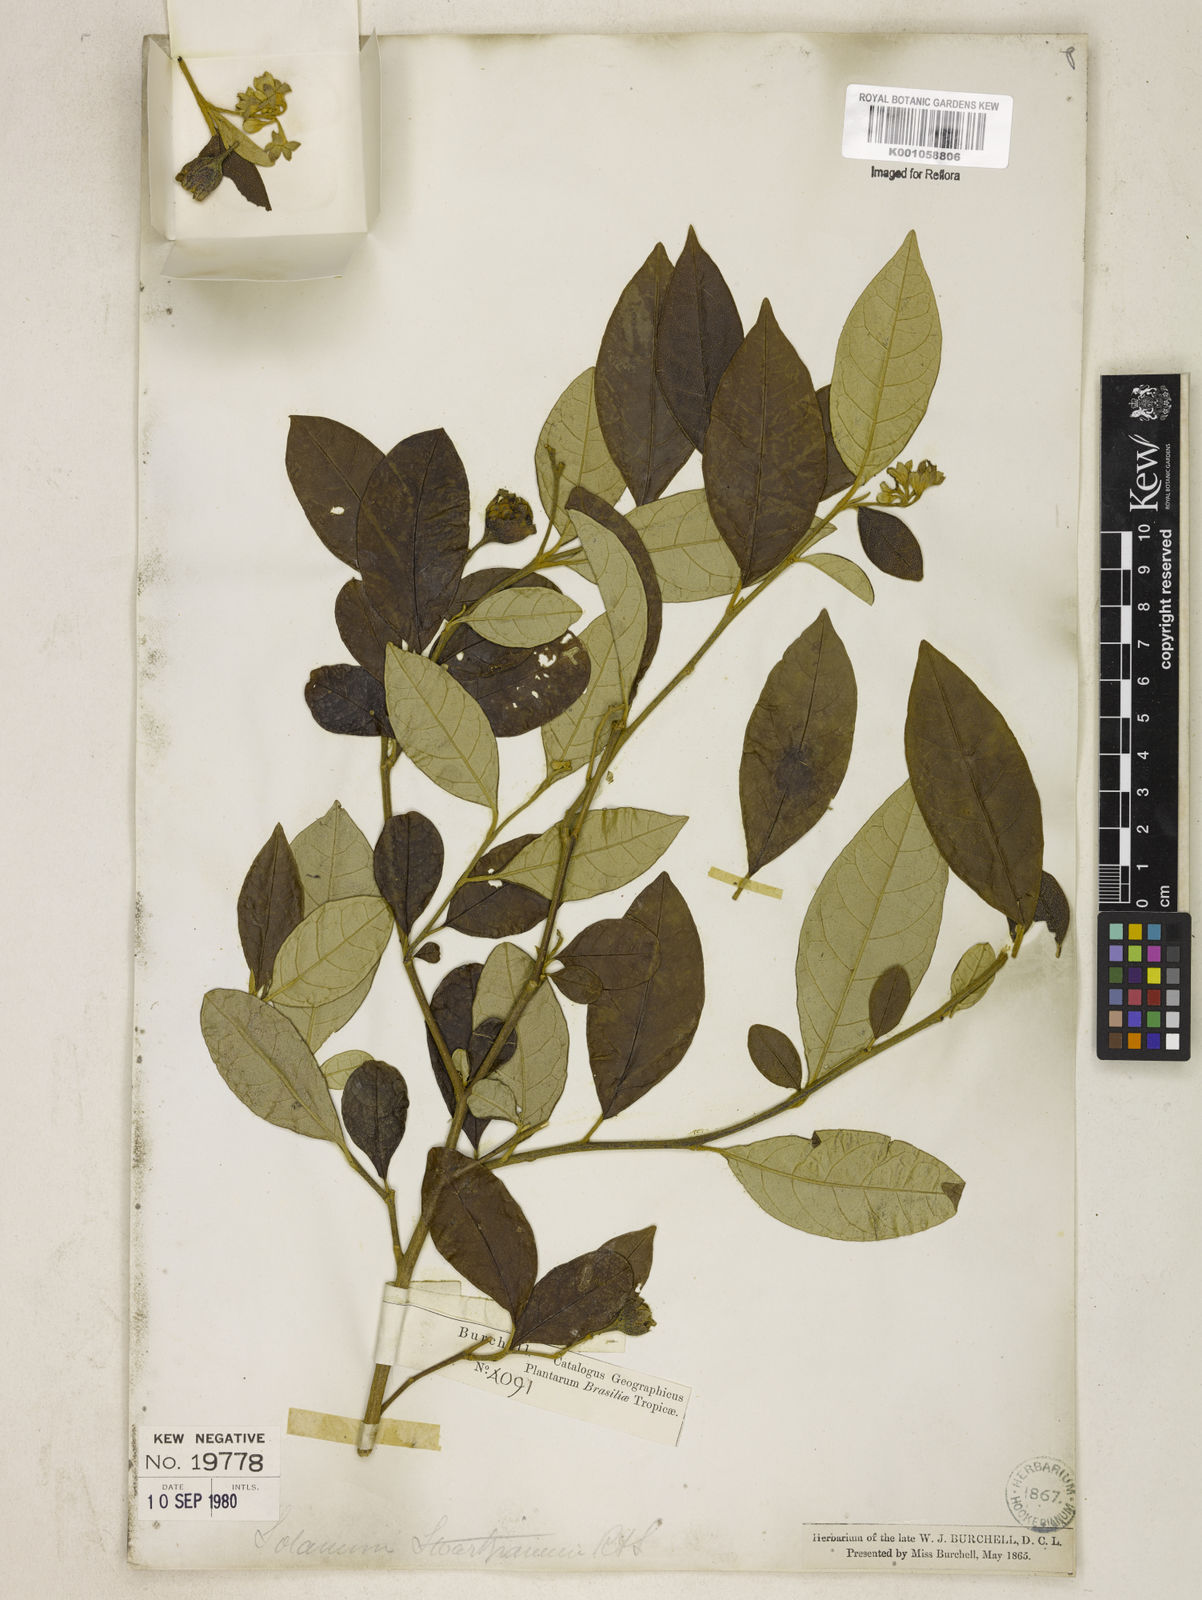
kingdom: Plantae
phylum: Tracheophyta
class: Magnoliopsida
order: Solanales
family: Solanaceae
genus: Solanum
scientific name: Solanum swartzianum
